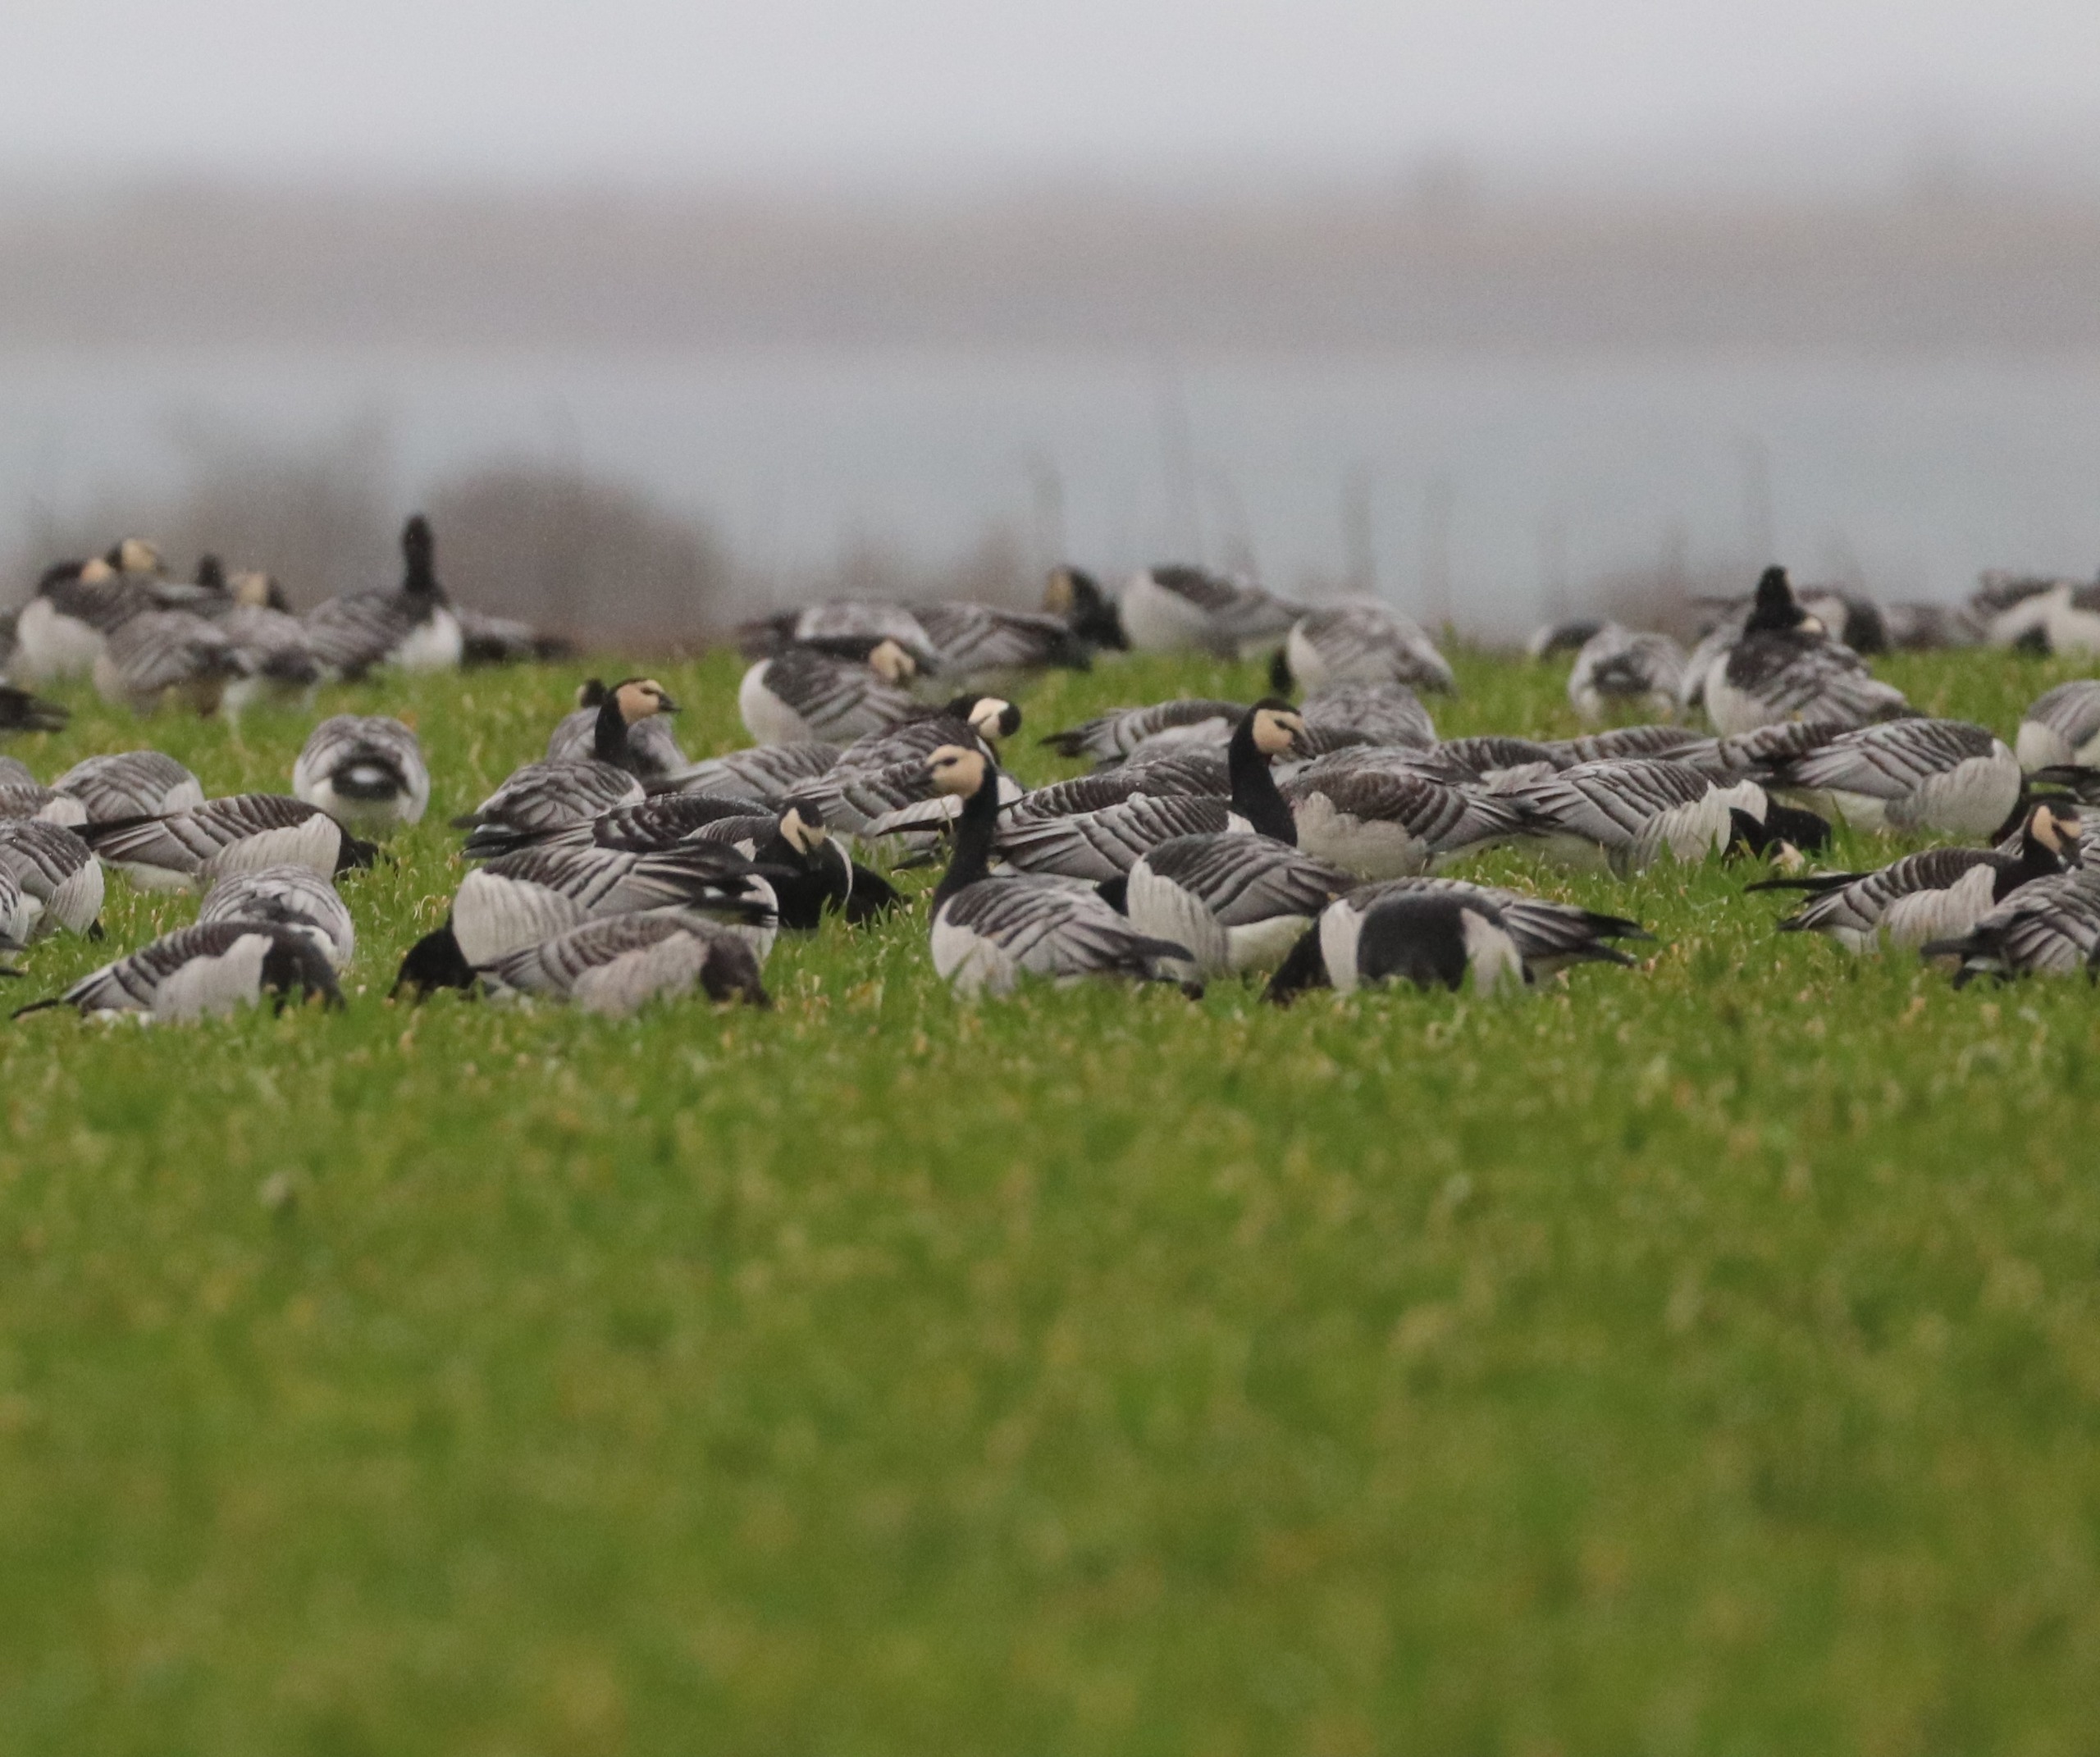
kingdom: Animalia
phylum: Chordata
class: Aves
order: Anseriformes
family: Anatidae
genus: Branta
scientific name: Branta leucopsis
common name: Bramgås
